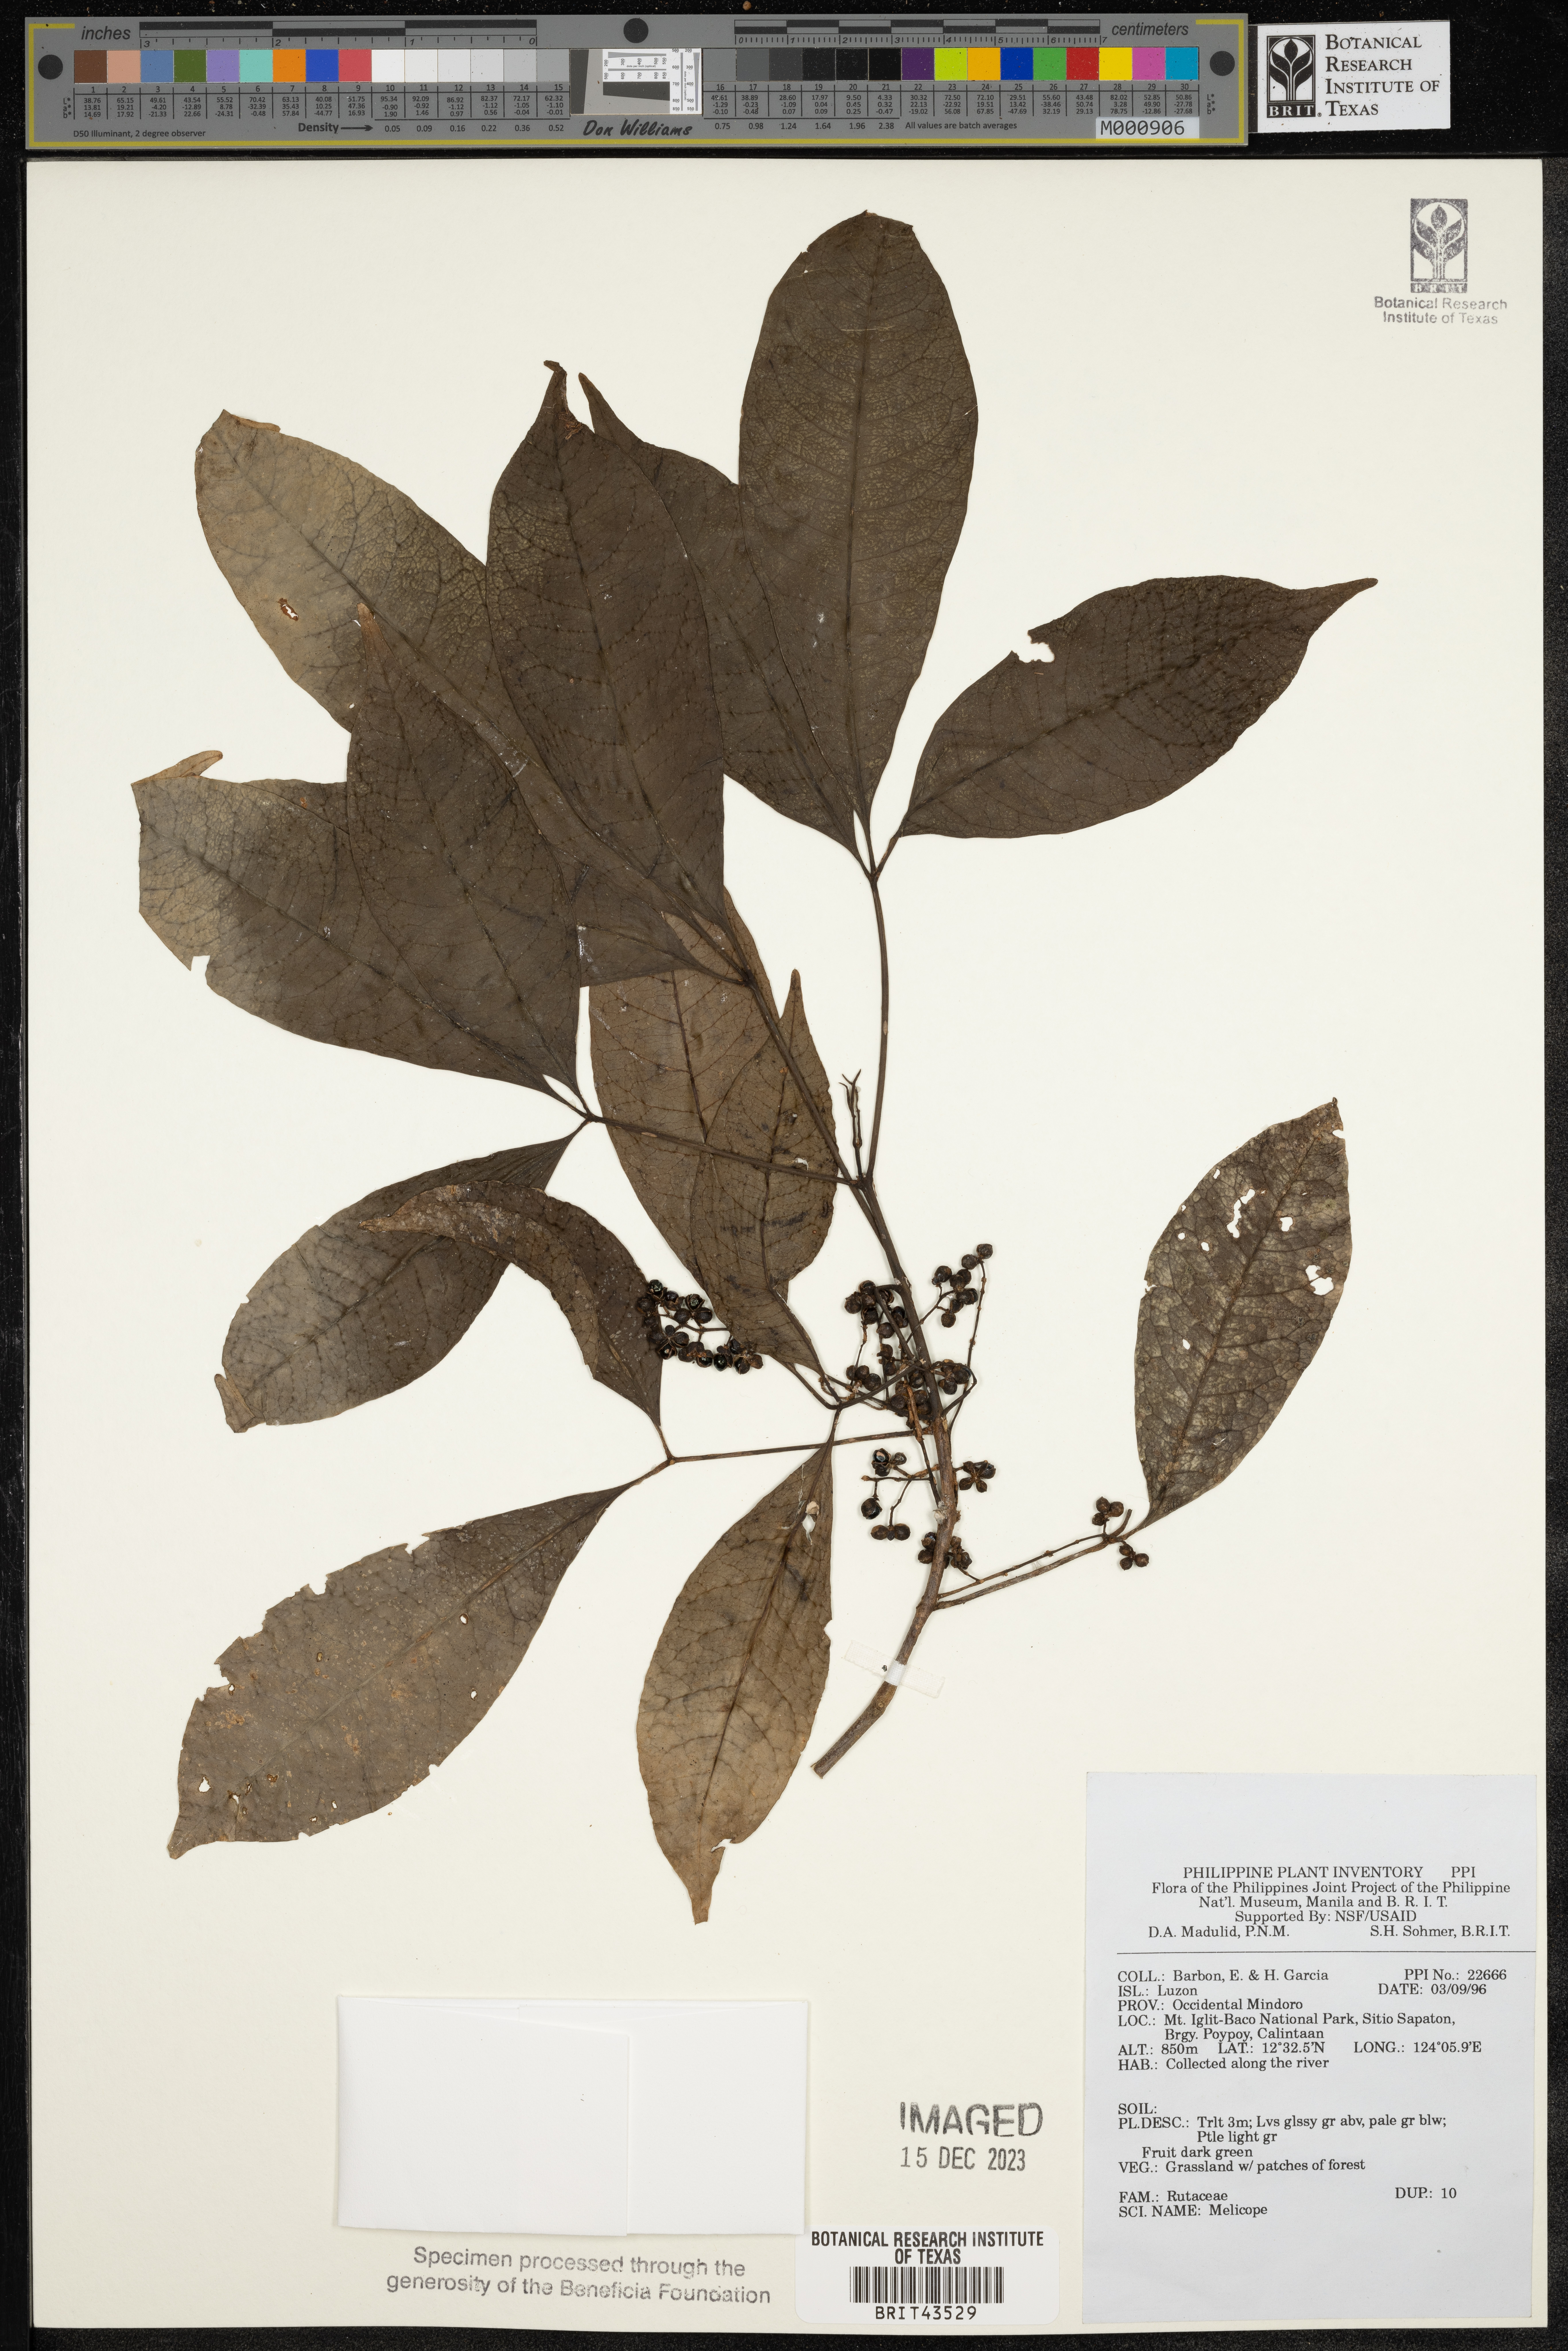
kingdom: Plantae
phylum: Tracheophyta
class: Magnoliopsida
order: Sapindales
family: Rutaceae
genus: Melicope
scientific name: Melicope
